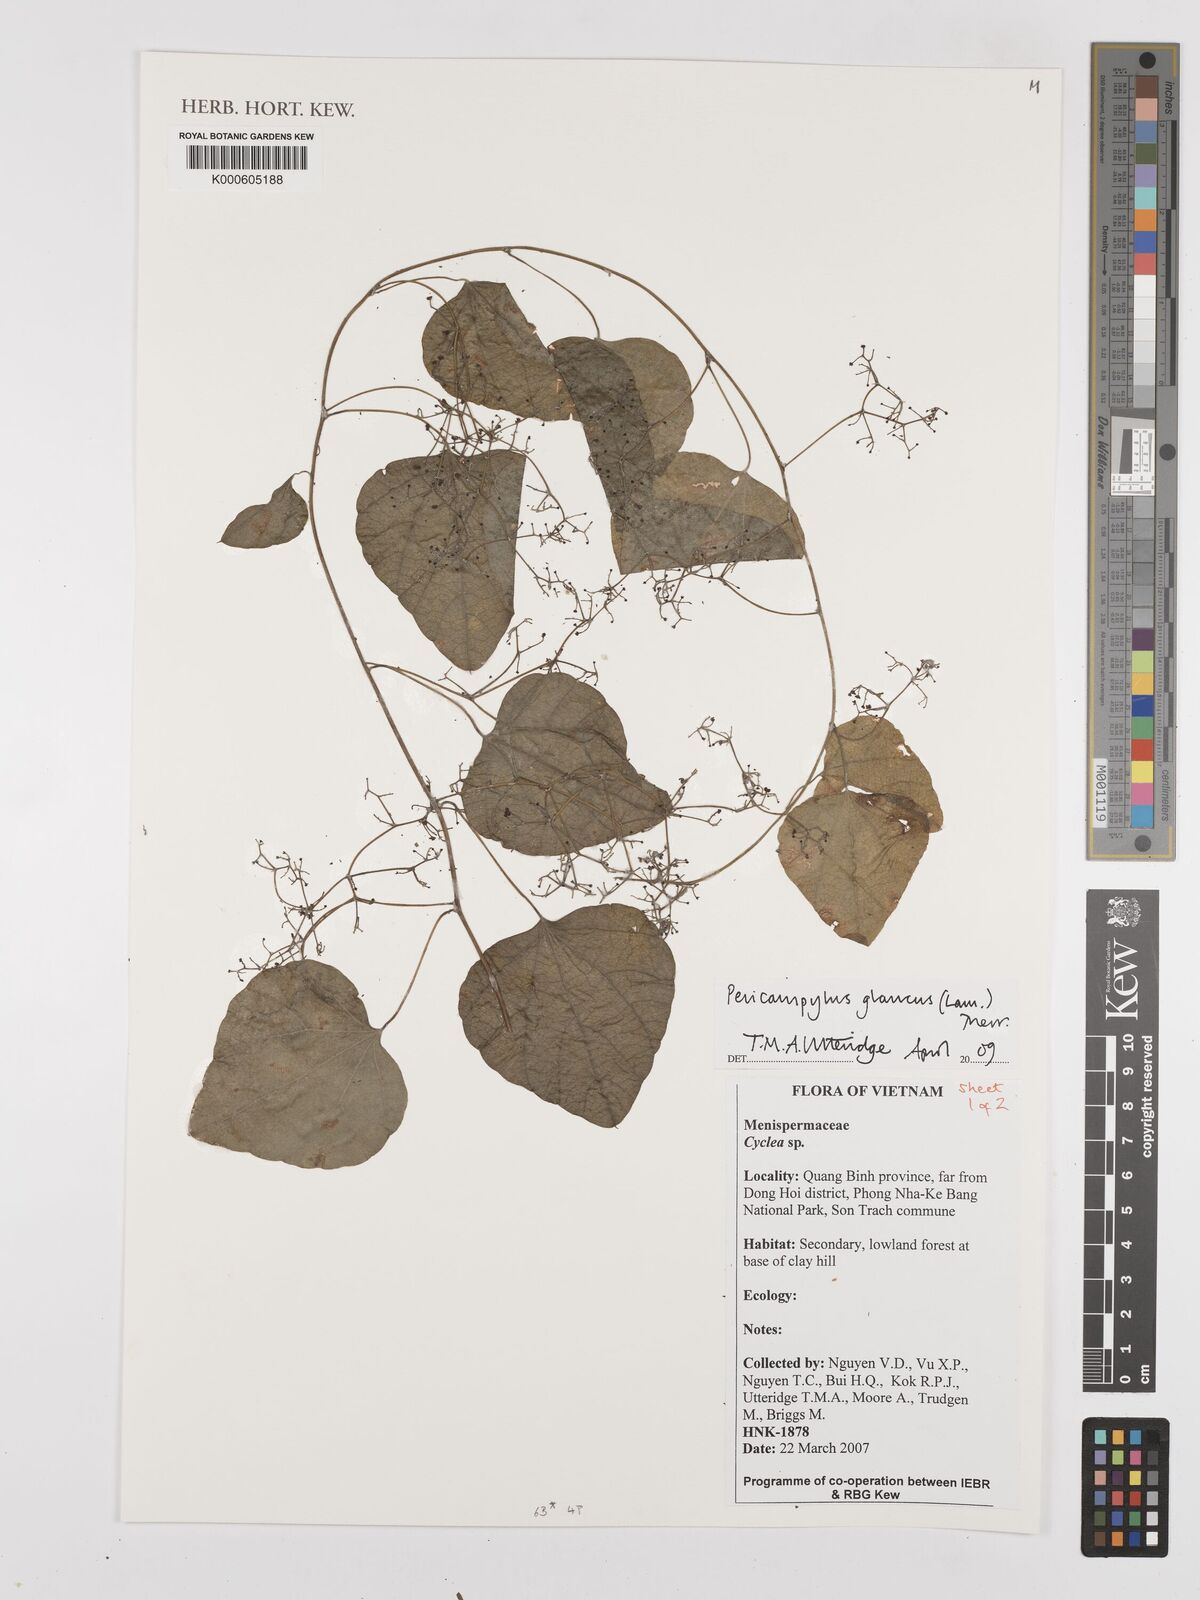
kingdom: Plantae
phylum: Tracheophyta
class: Magnoliopsida
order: Ranunculales
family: Menispermaceae
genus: Pericampylus
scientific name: Pericampylus glaucus
